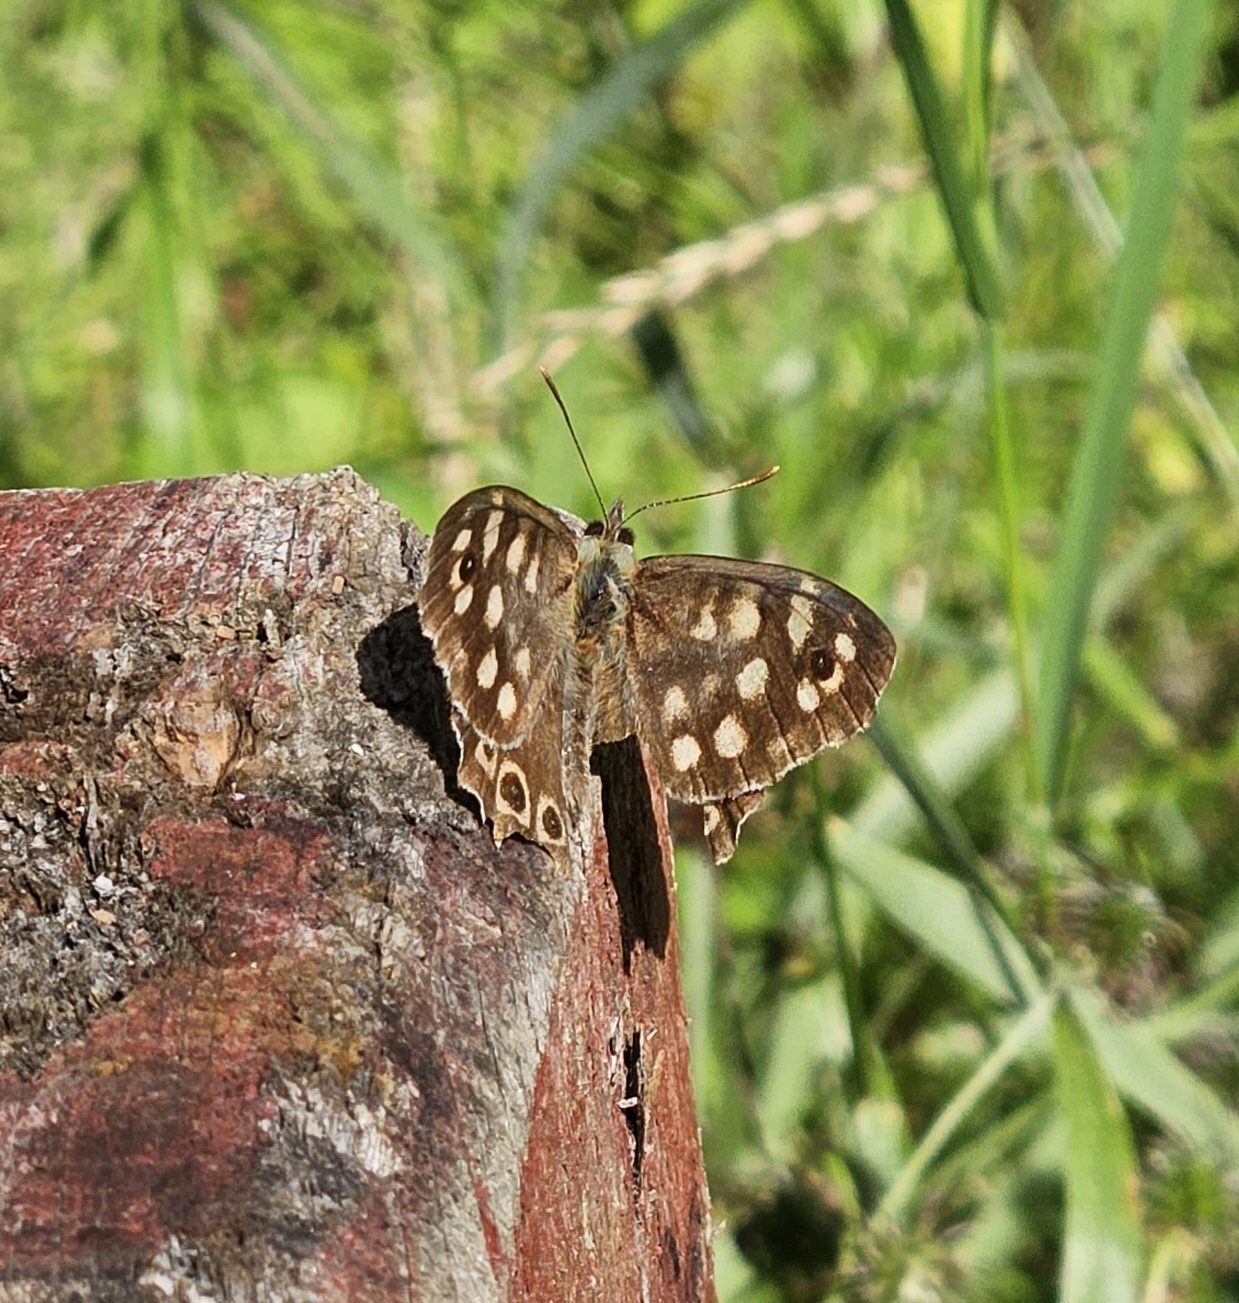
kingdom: Animalia
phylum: Arthropoda
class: Insecta
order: Lepidoptera
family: Nymphalidae
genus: Pararge
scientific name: Pararge aegeria
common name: Skovrandøje
